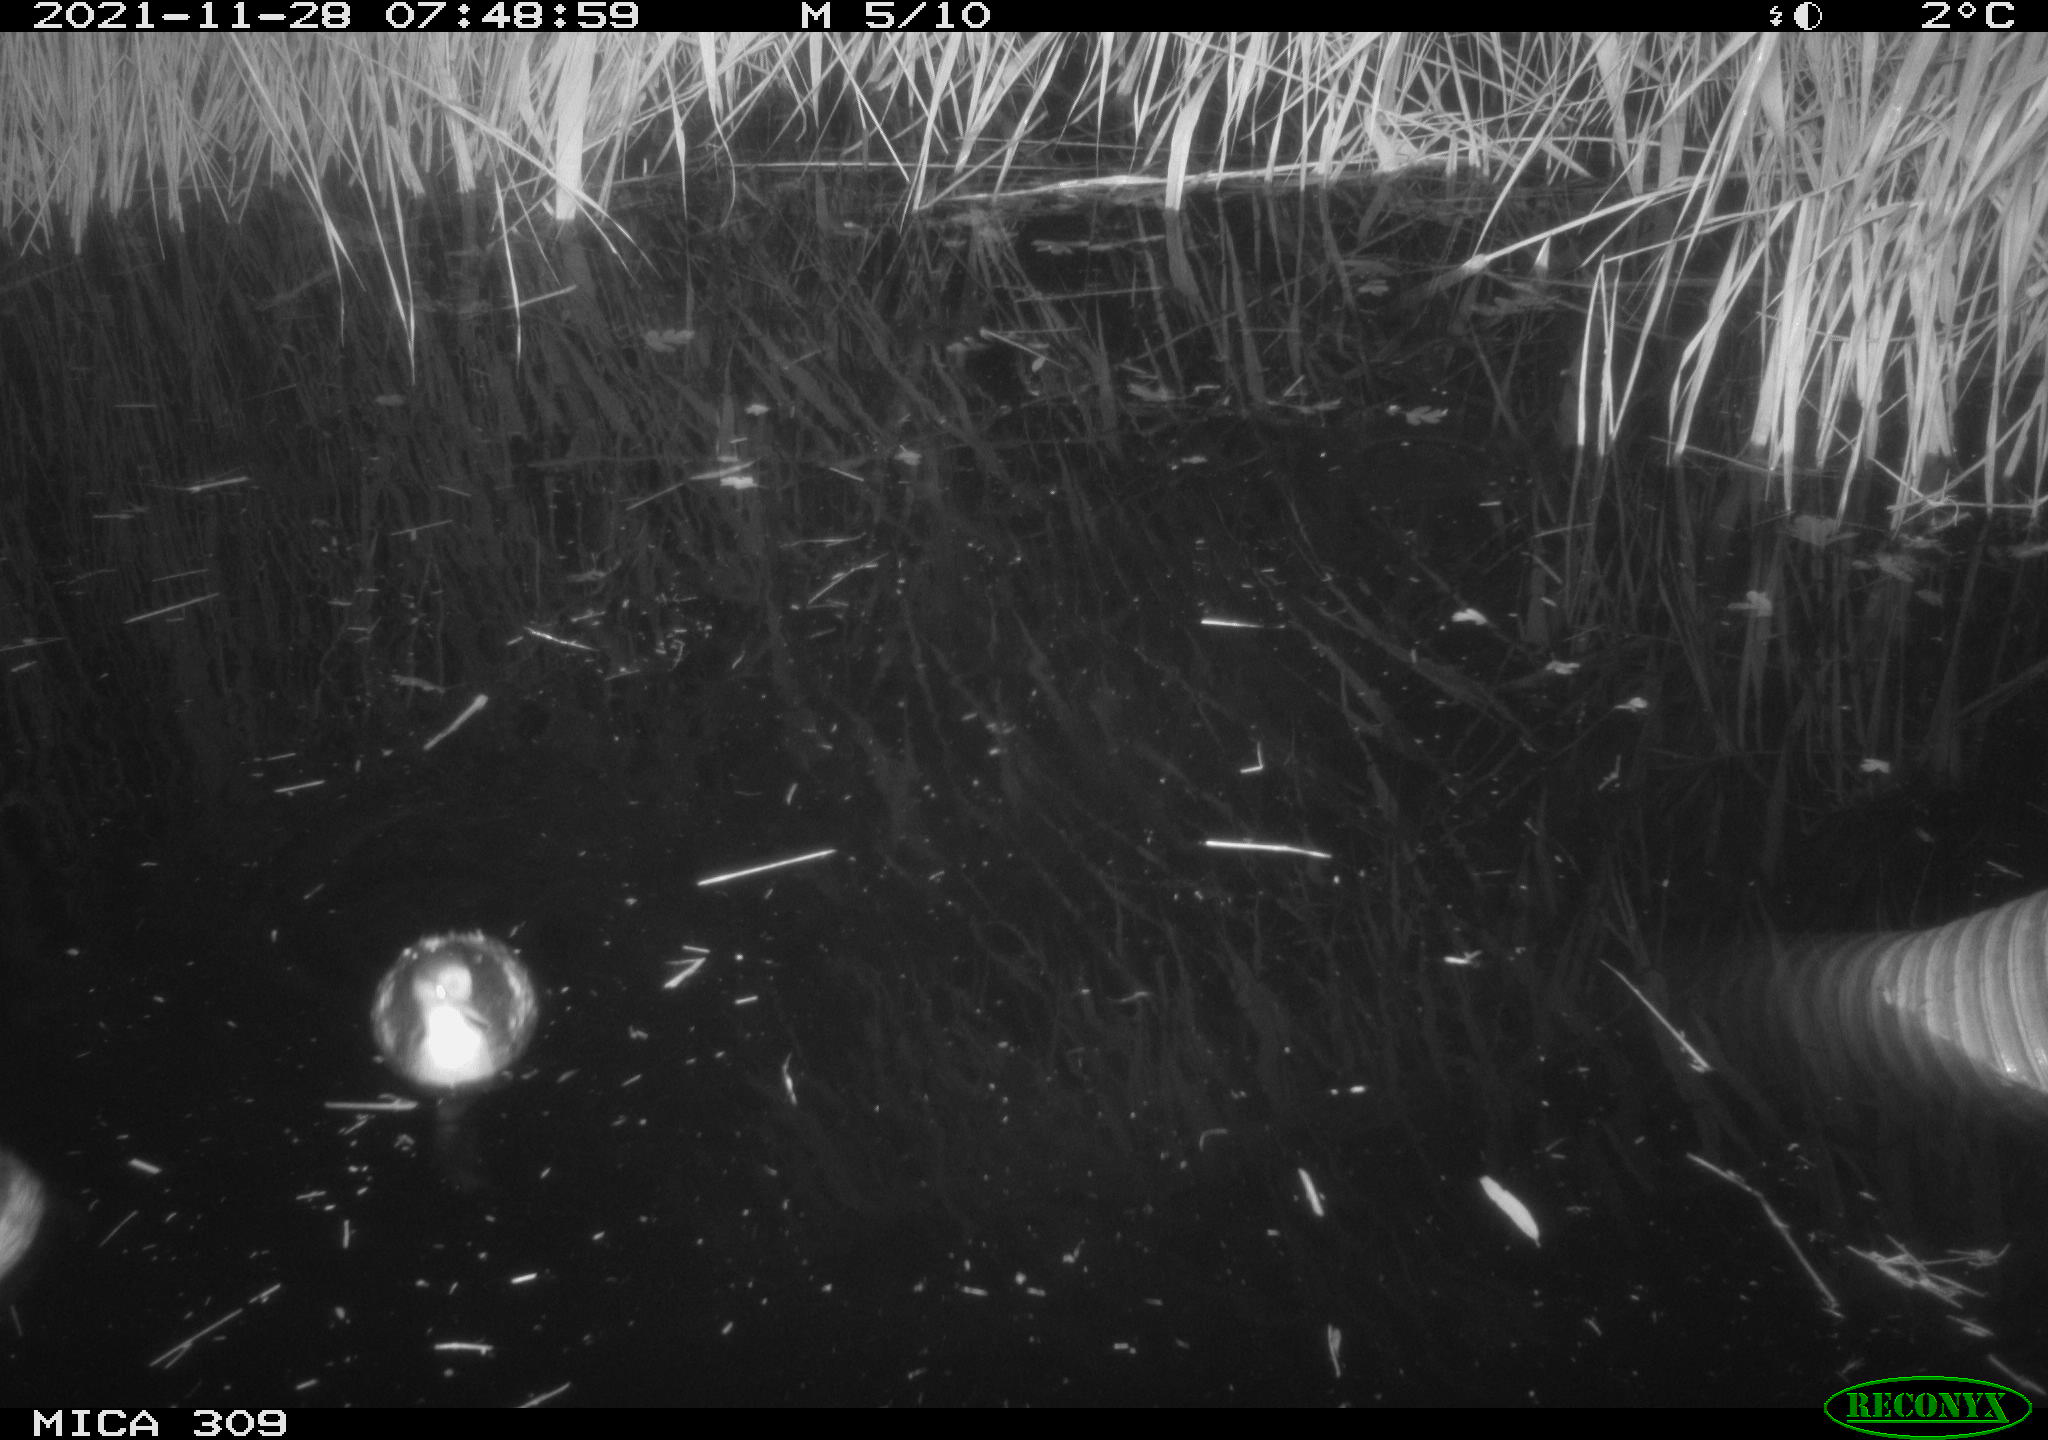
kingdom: Animalia
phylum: Chordata
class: Aves
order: Gruiformes
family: Rallidae
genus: Rallus
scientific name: Rallus aquaticus
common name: Water rail
